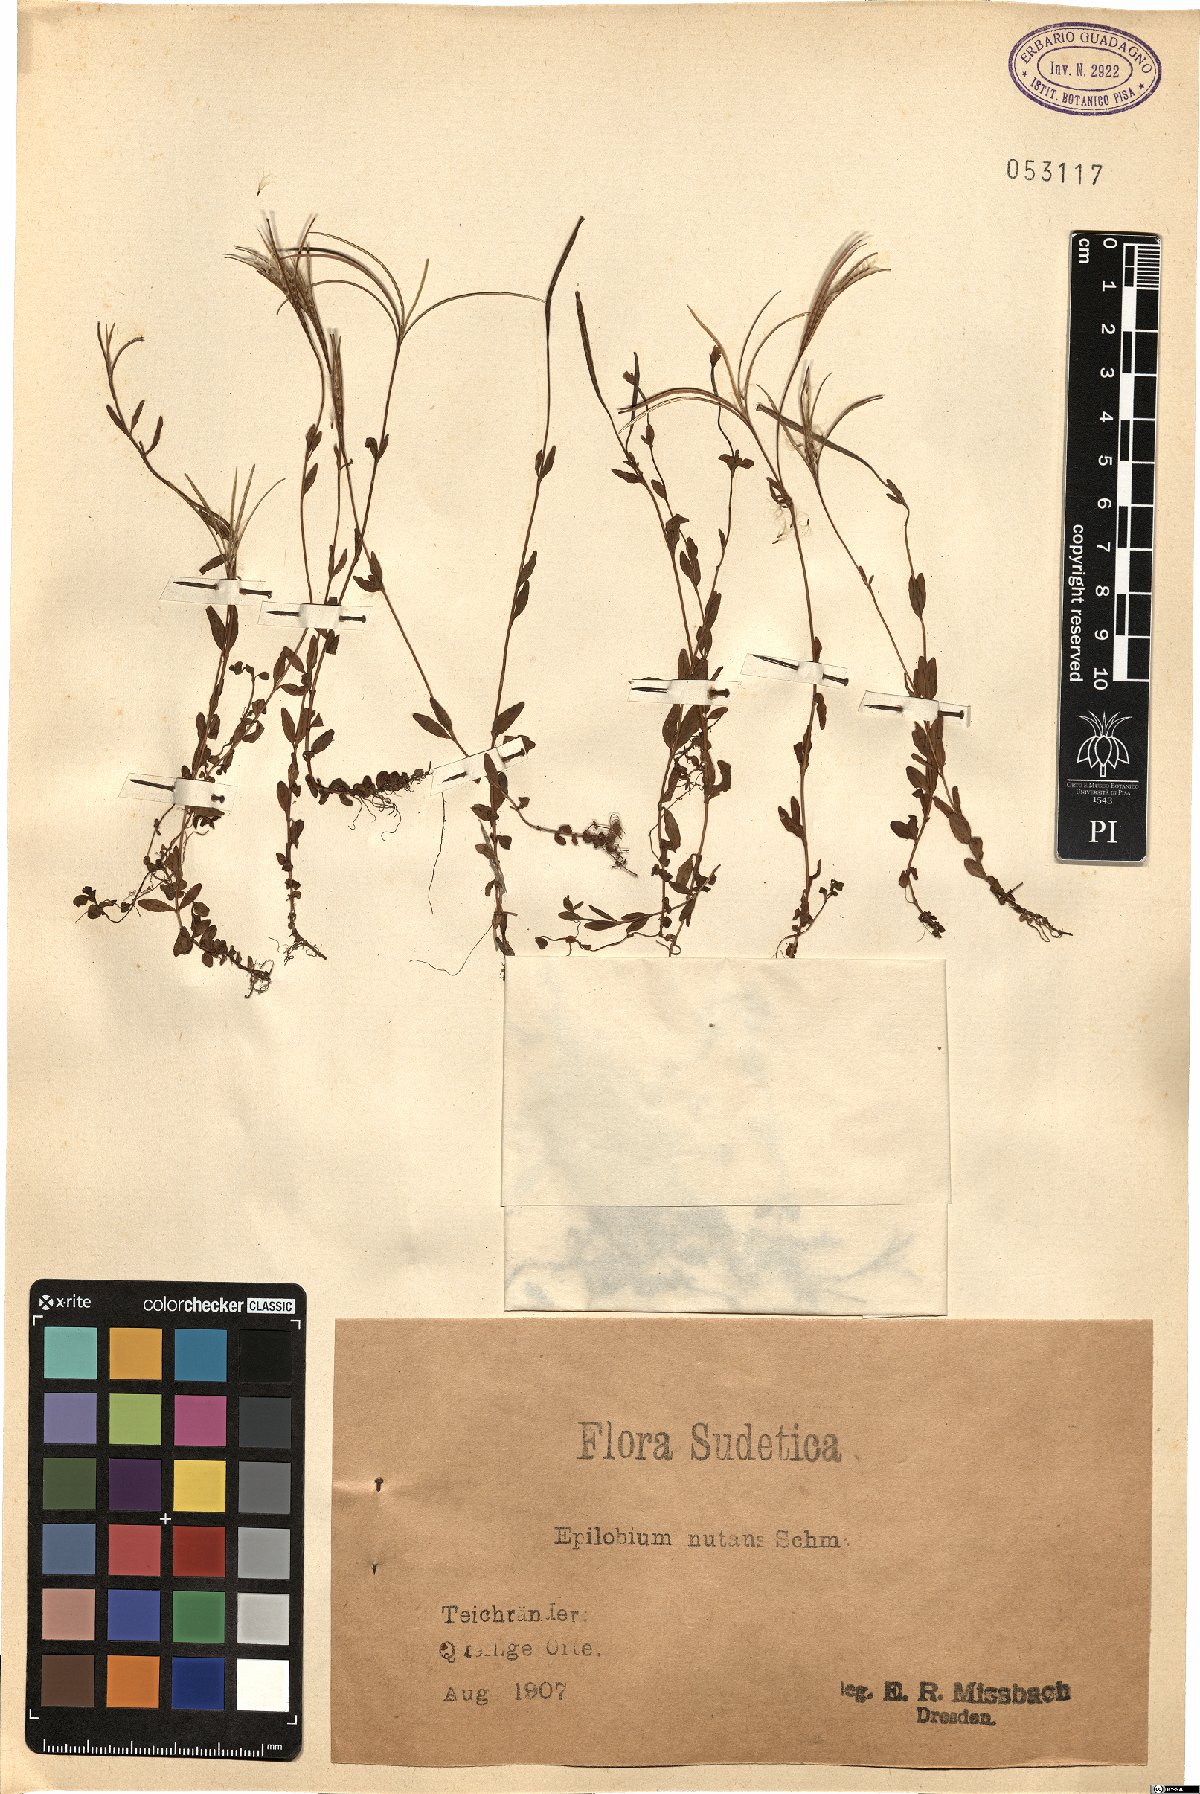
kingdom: Plantae
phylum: Tracheophyta
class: Magnoliopsida
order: Myrtales
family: Onagraceae
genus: Epilobium
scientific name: Epilobium nutans
